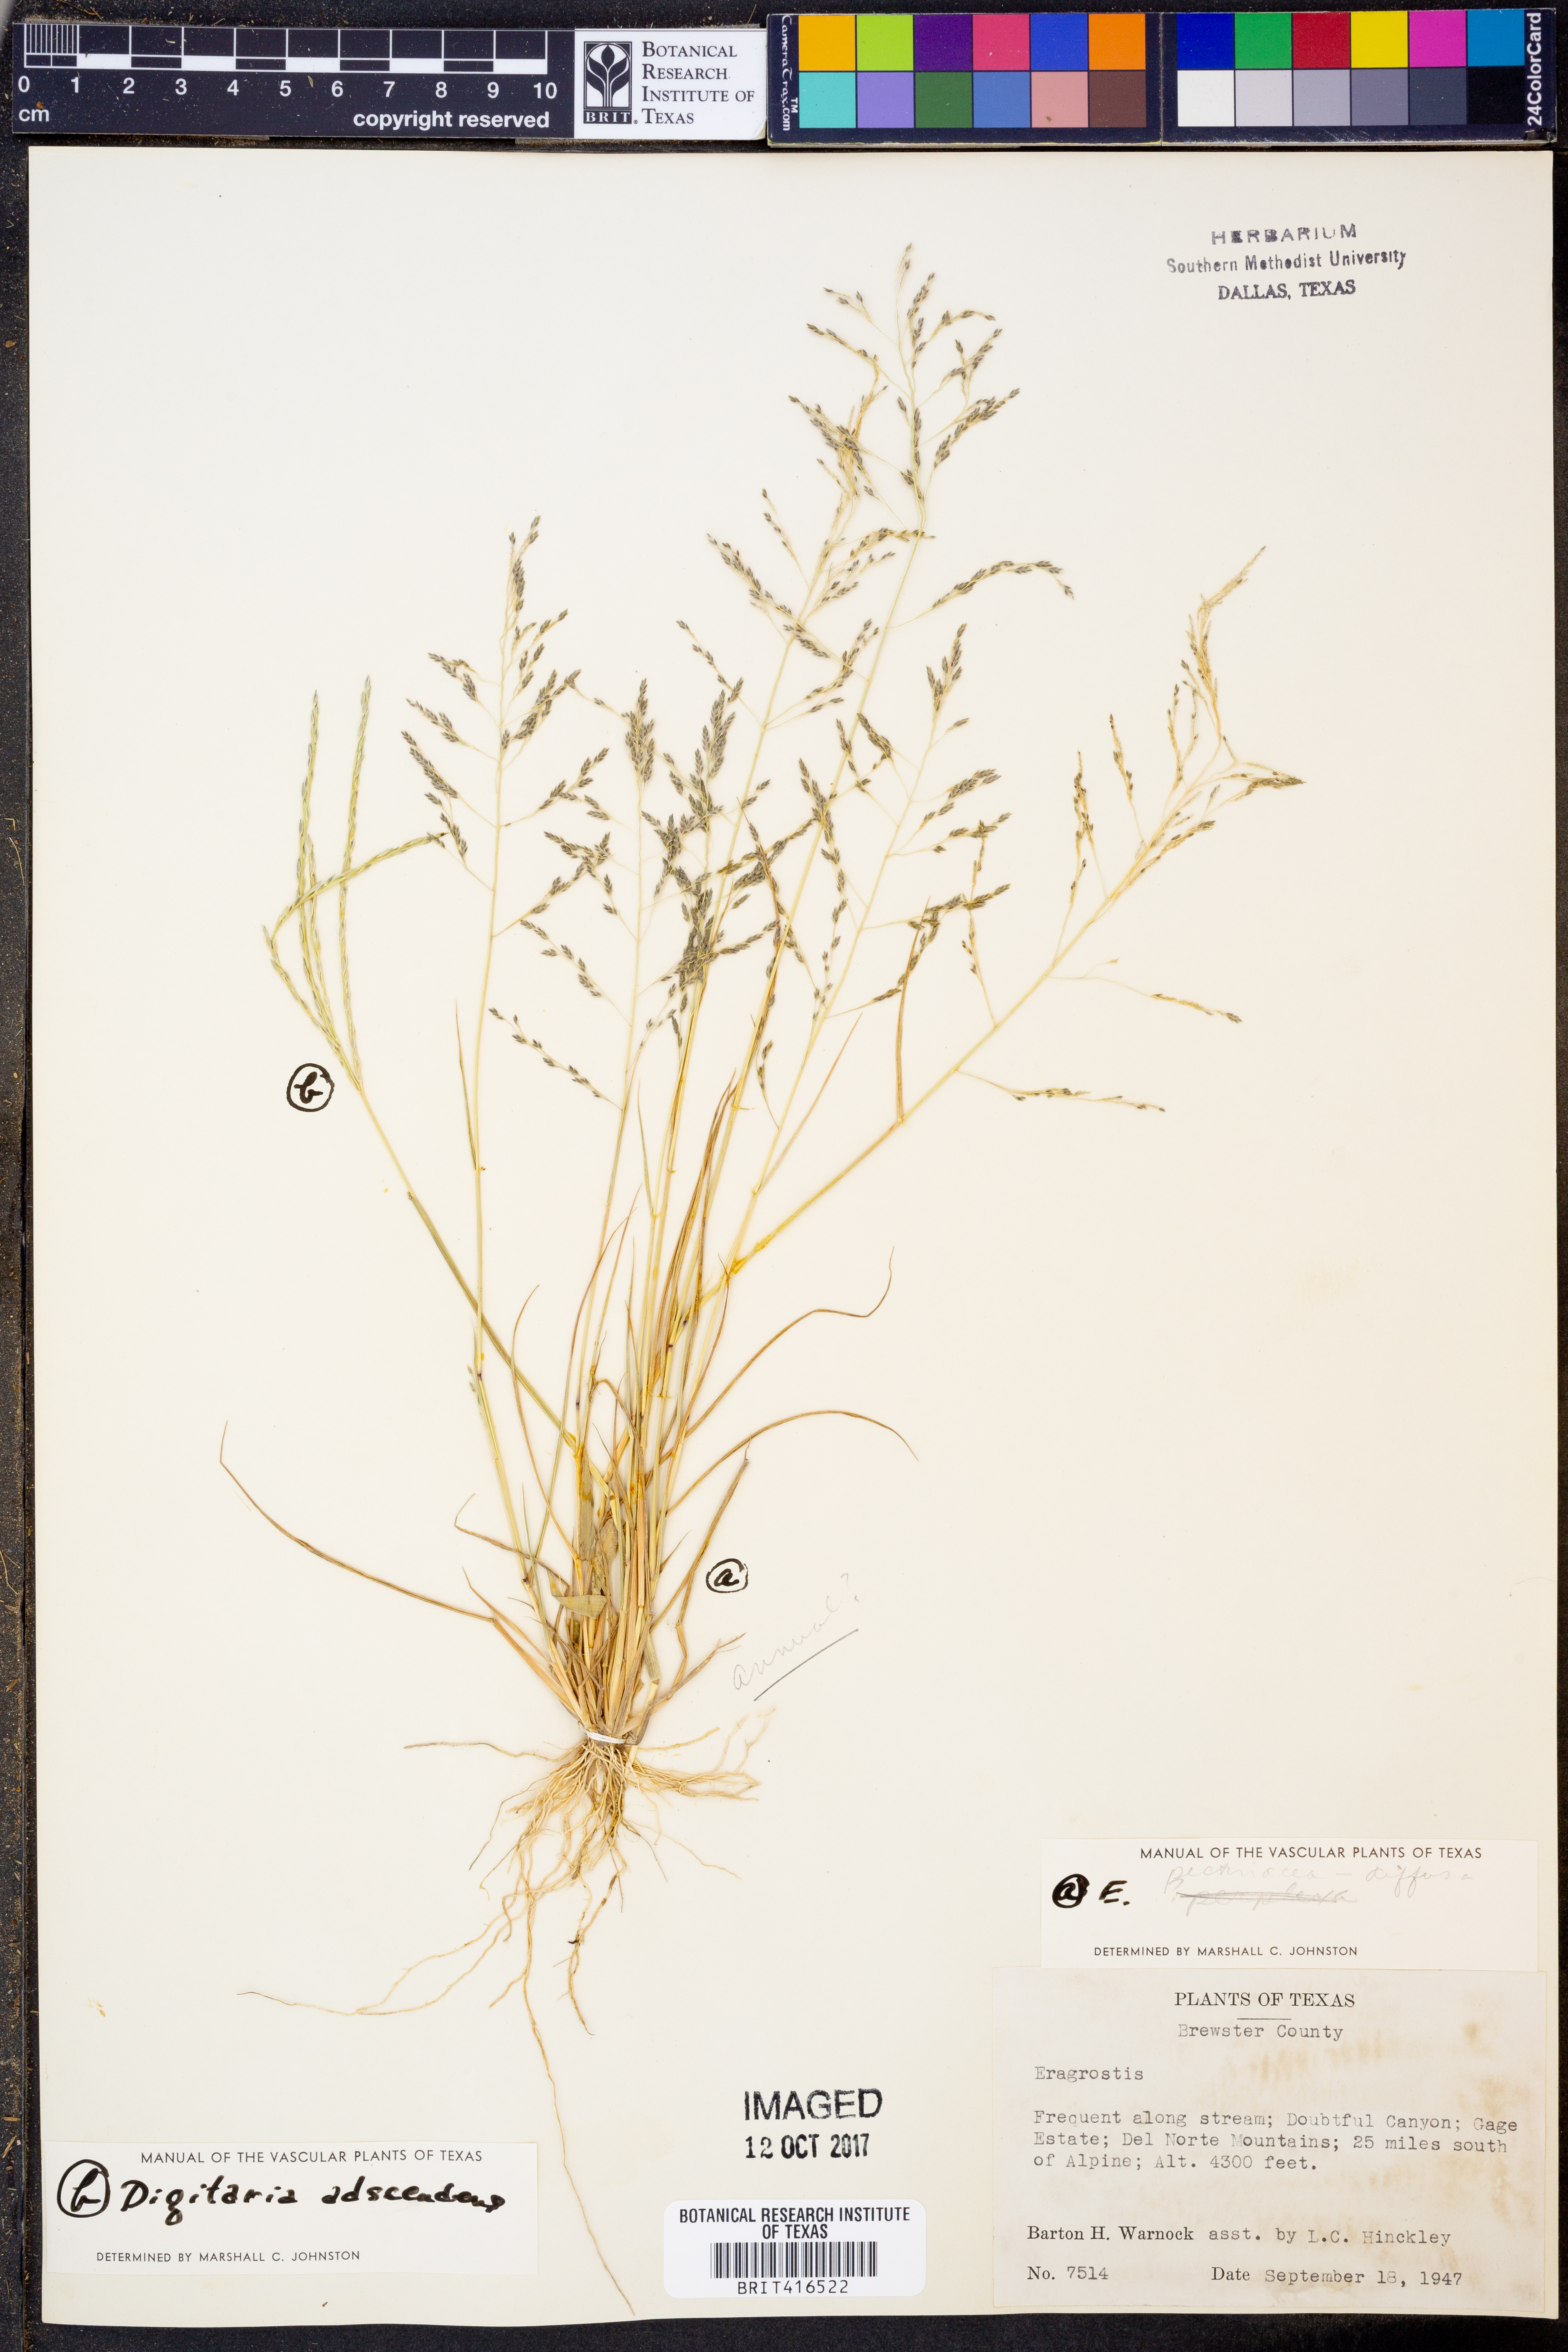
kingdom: Plantae
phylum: Tracheophyta
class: Liliopsida
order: Poales
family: Poaceae
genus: Eragrostis
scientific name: Eragrostis
